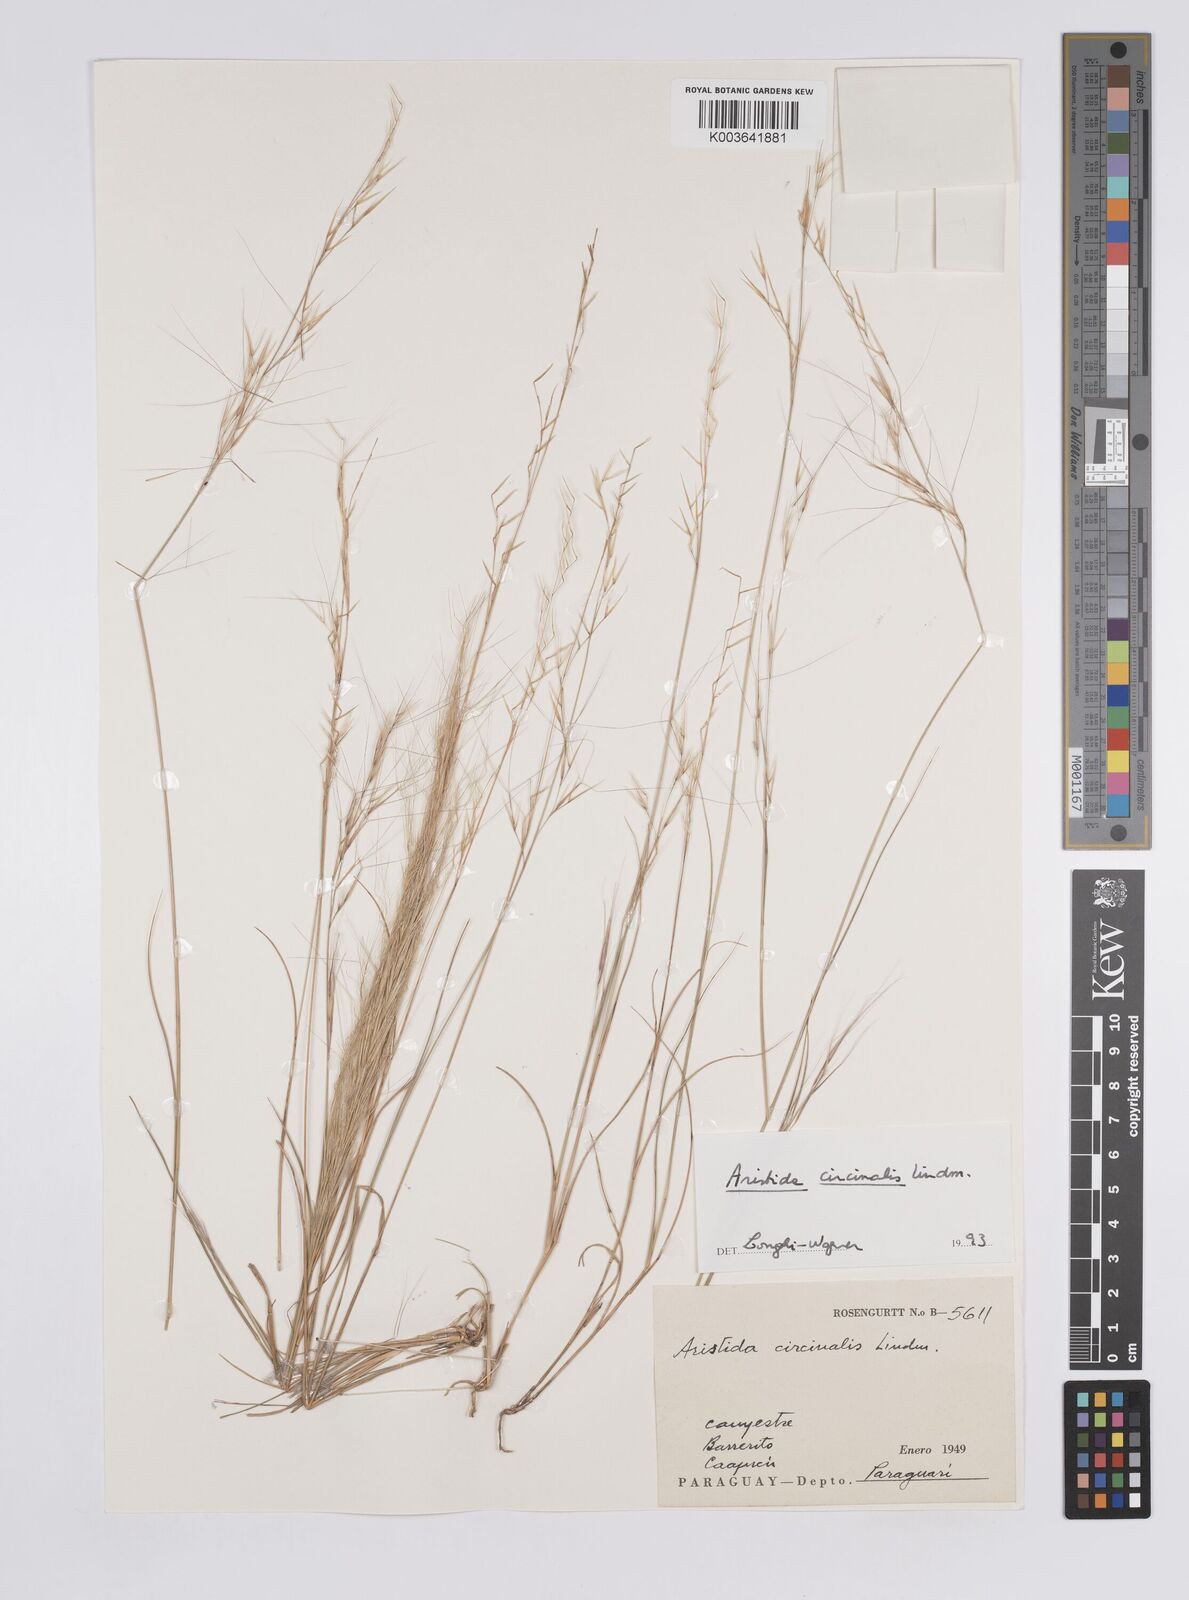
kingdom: Plantae
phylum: Tracheophyta
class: Liliopsida
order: Poales
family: Poaceae
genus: Aristida
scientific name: Aristida circinalis
